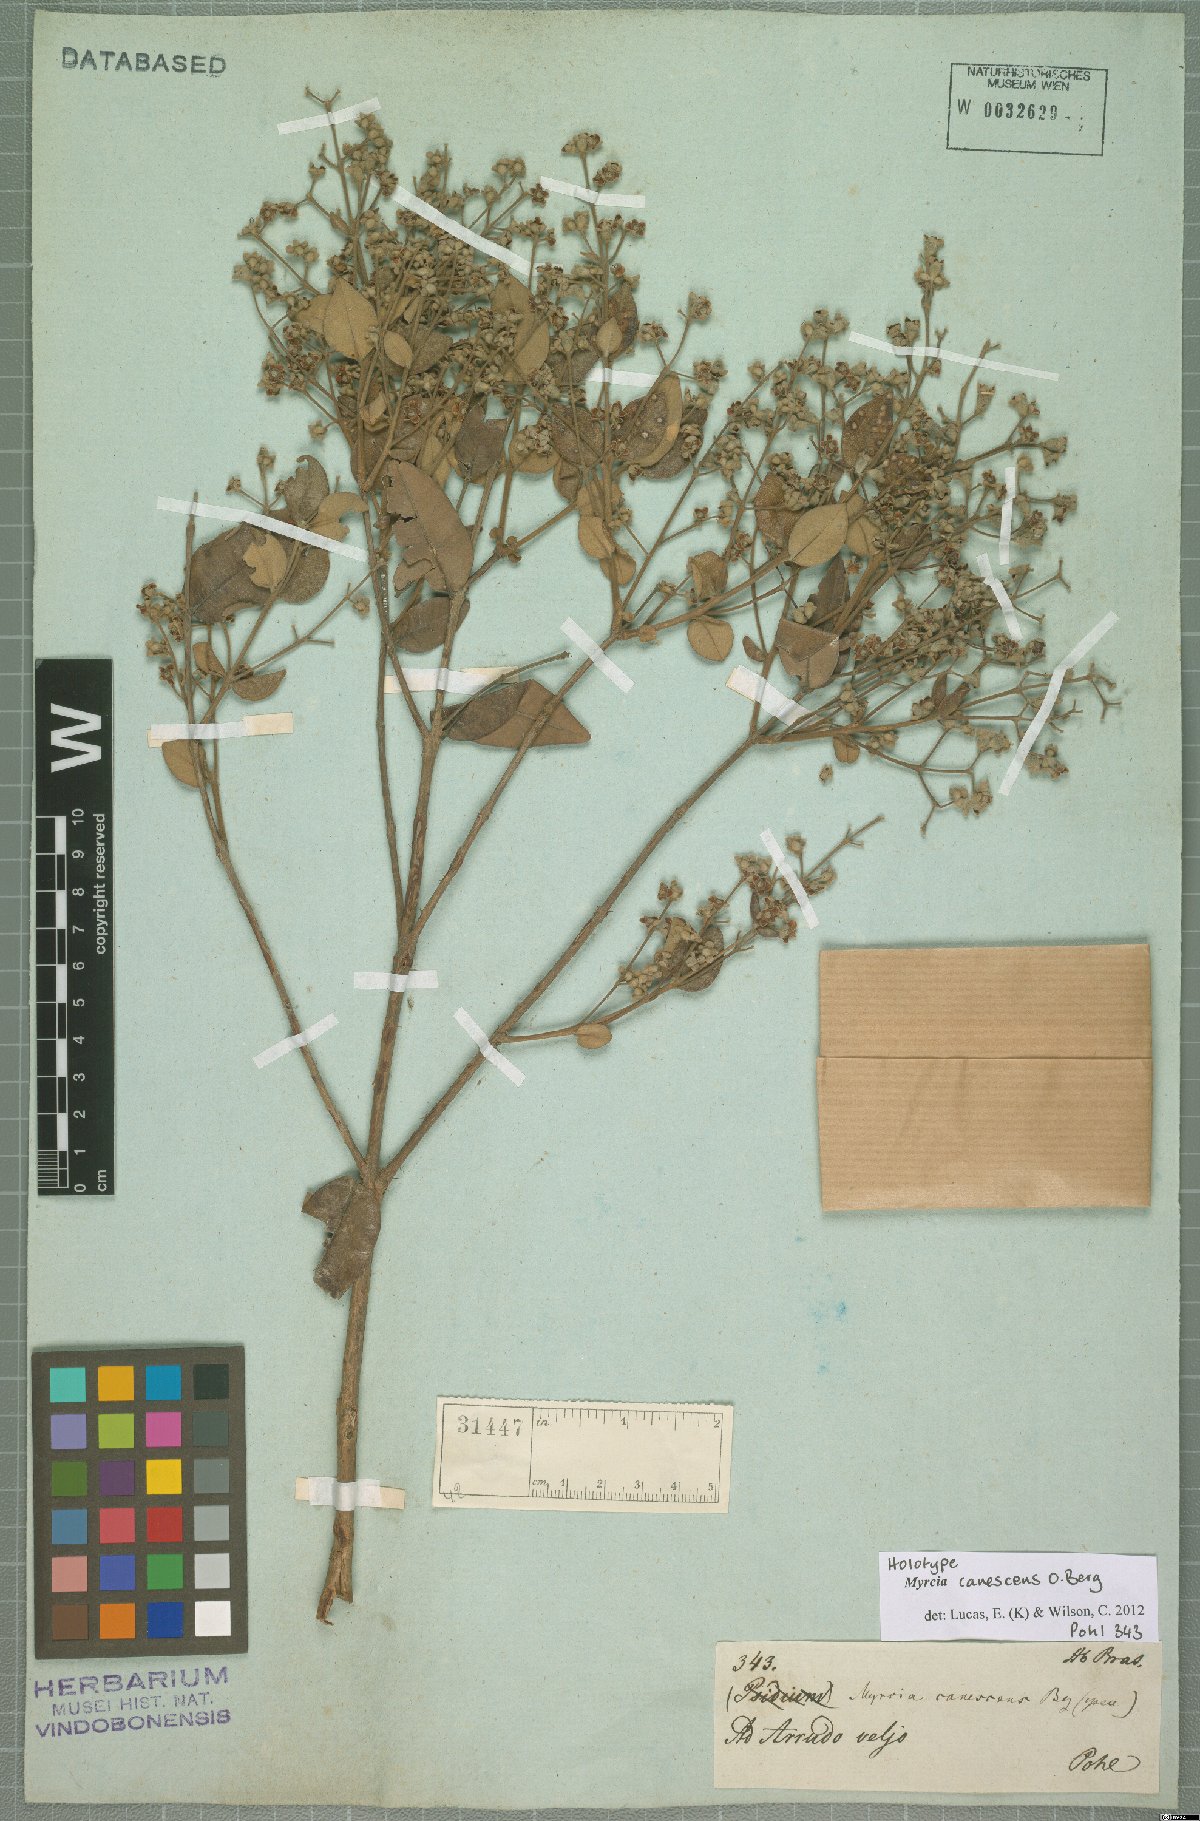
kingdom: Plantae
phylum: Tracheophyta
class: Magnoliopsida
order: Myrtales
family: Myrtaceae
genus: Myrcia
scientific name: Myrcia canescens
